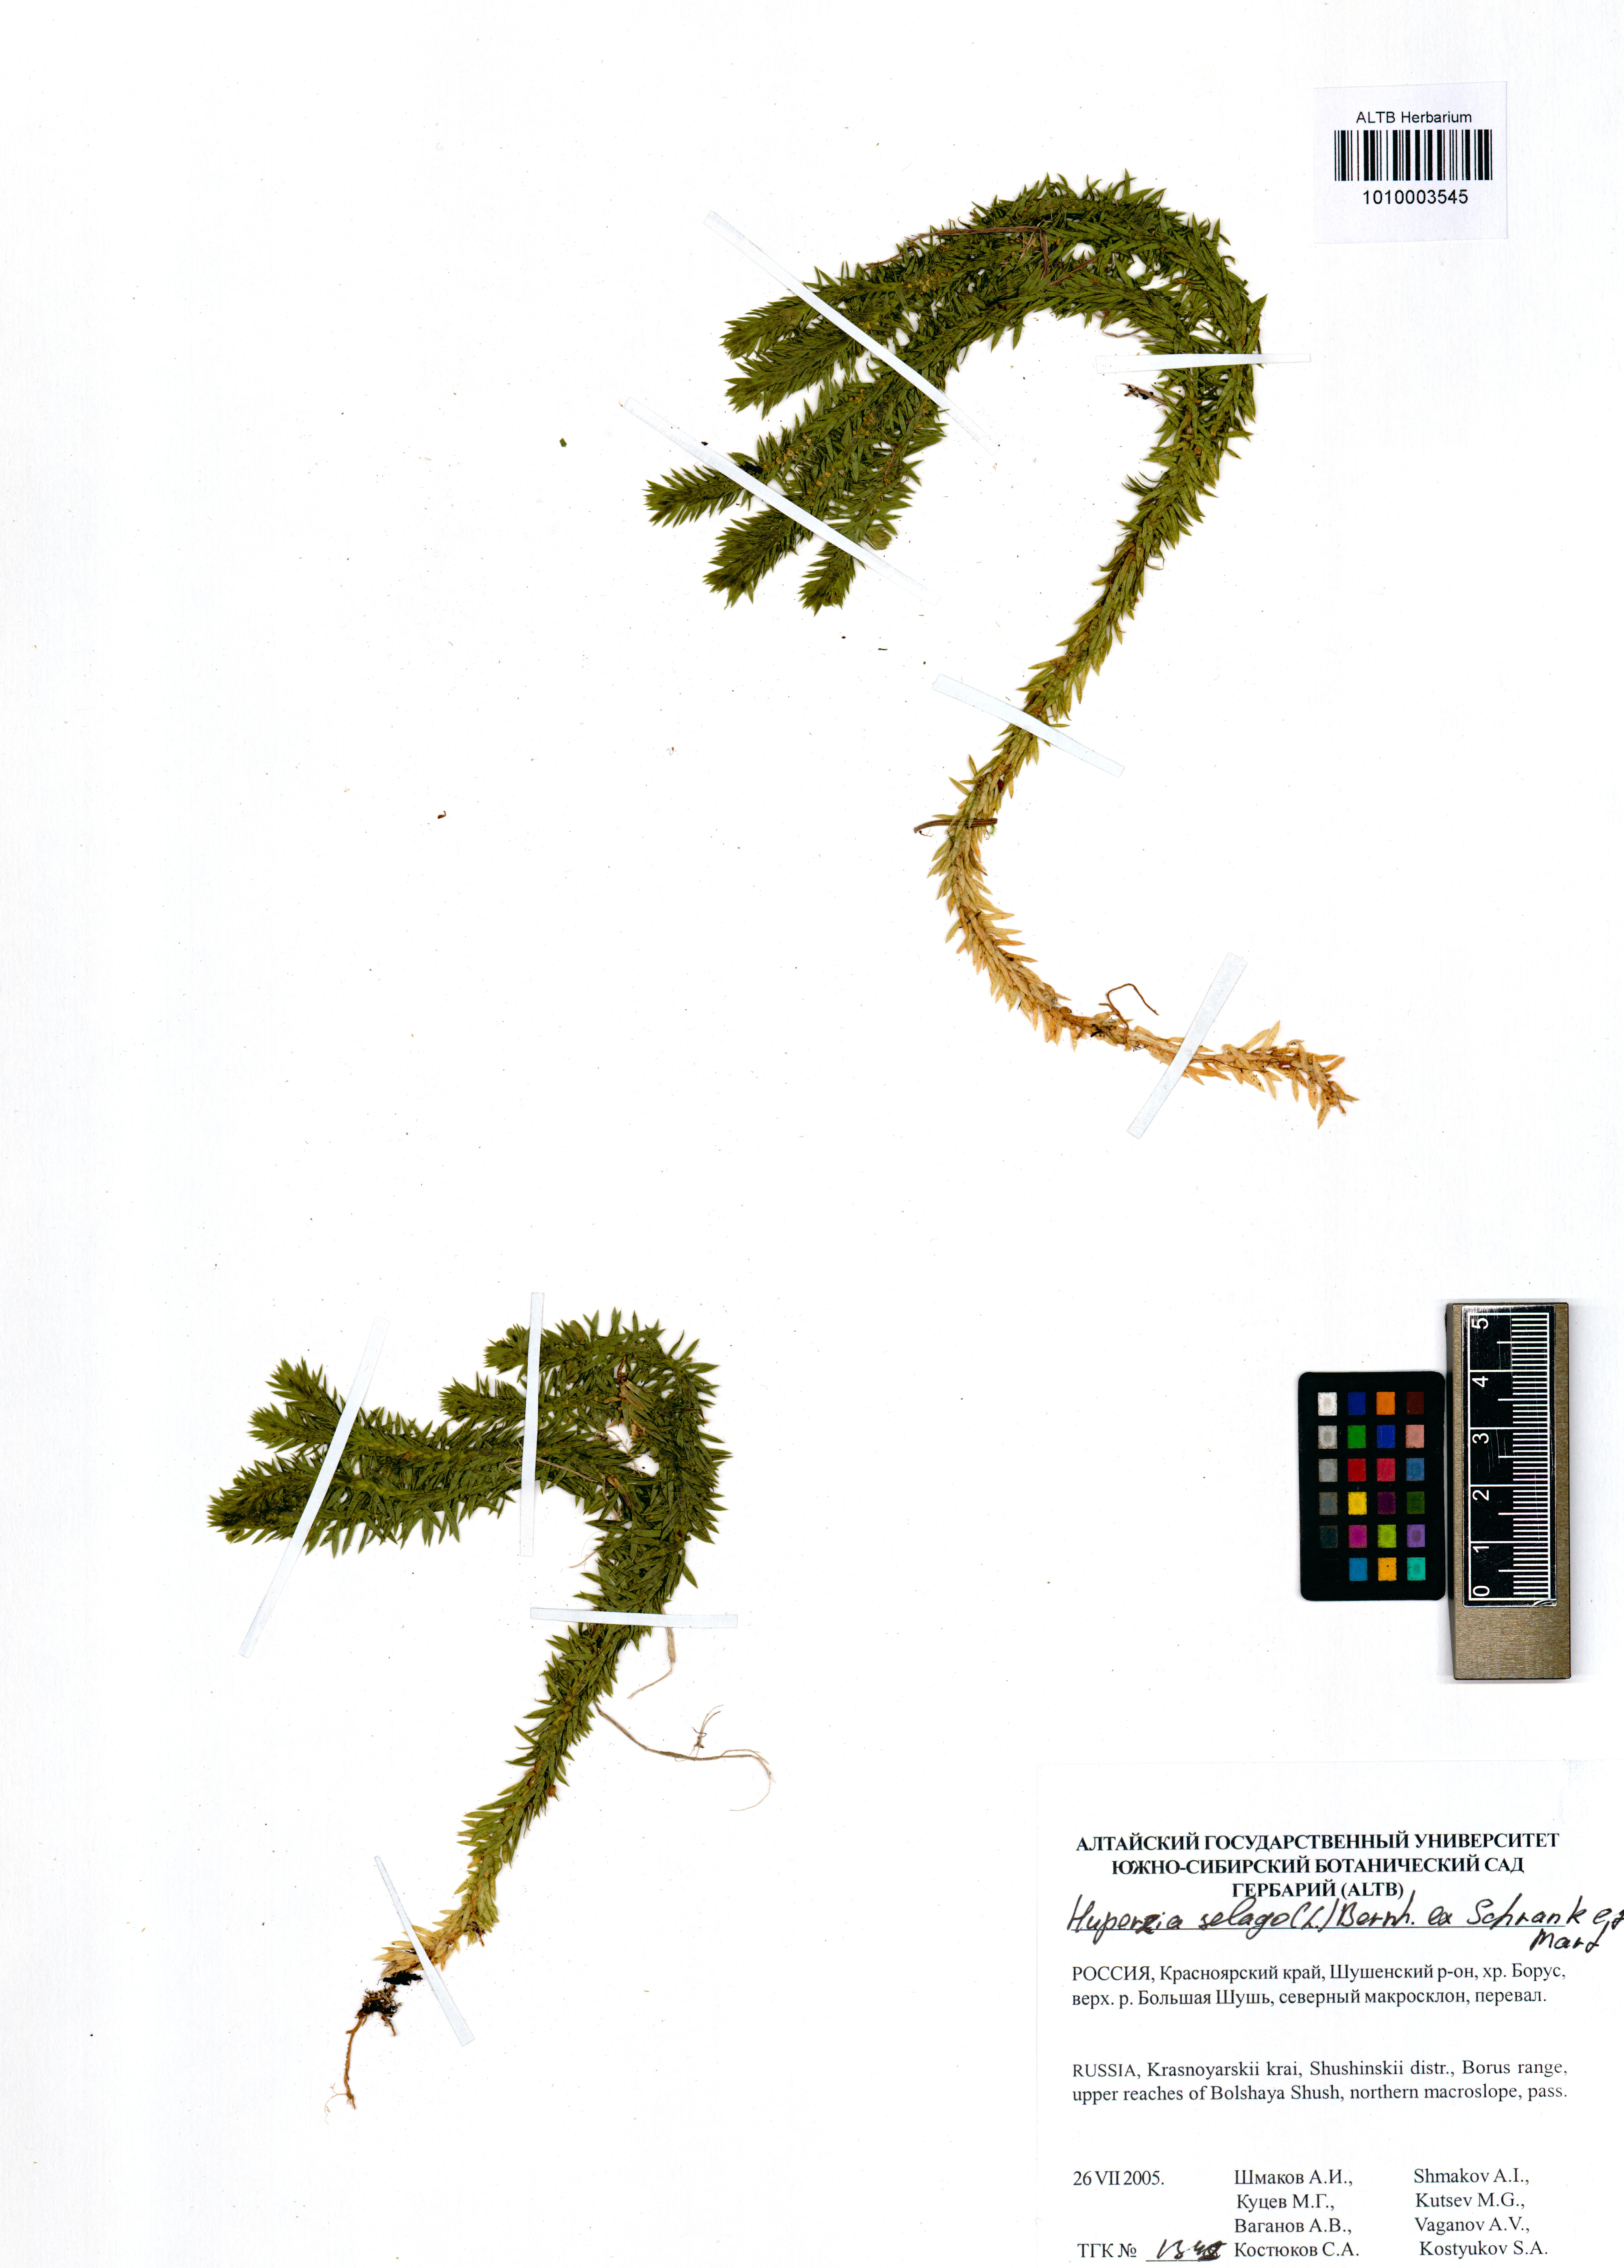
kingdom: Plantae
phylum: Tracheophyta
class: Lycopodiopsida
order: Lycopodiales
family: Lycopodiaceae
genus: Huperzia
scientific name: Huperzia selago
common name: Northern firmoss
